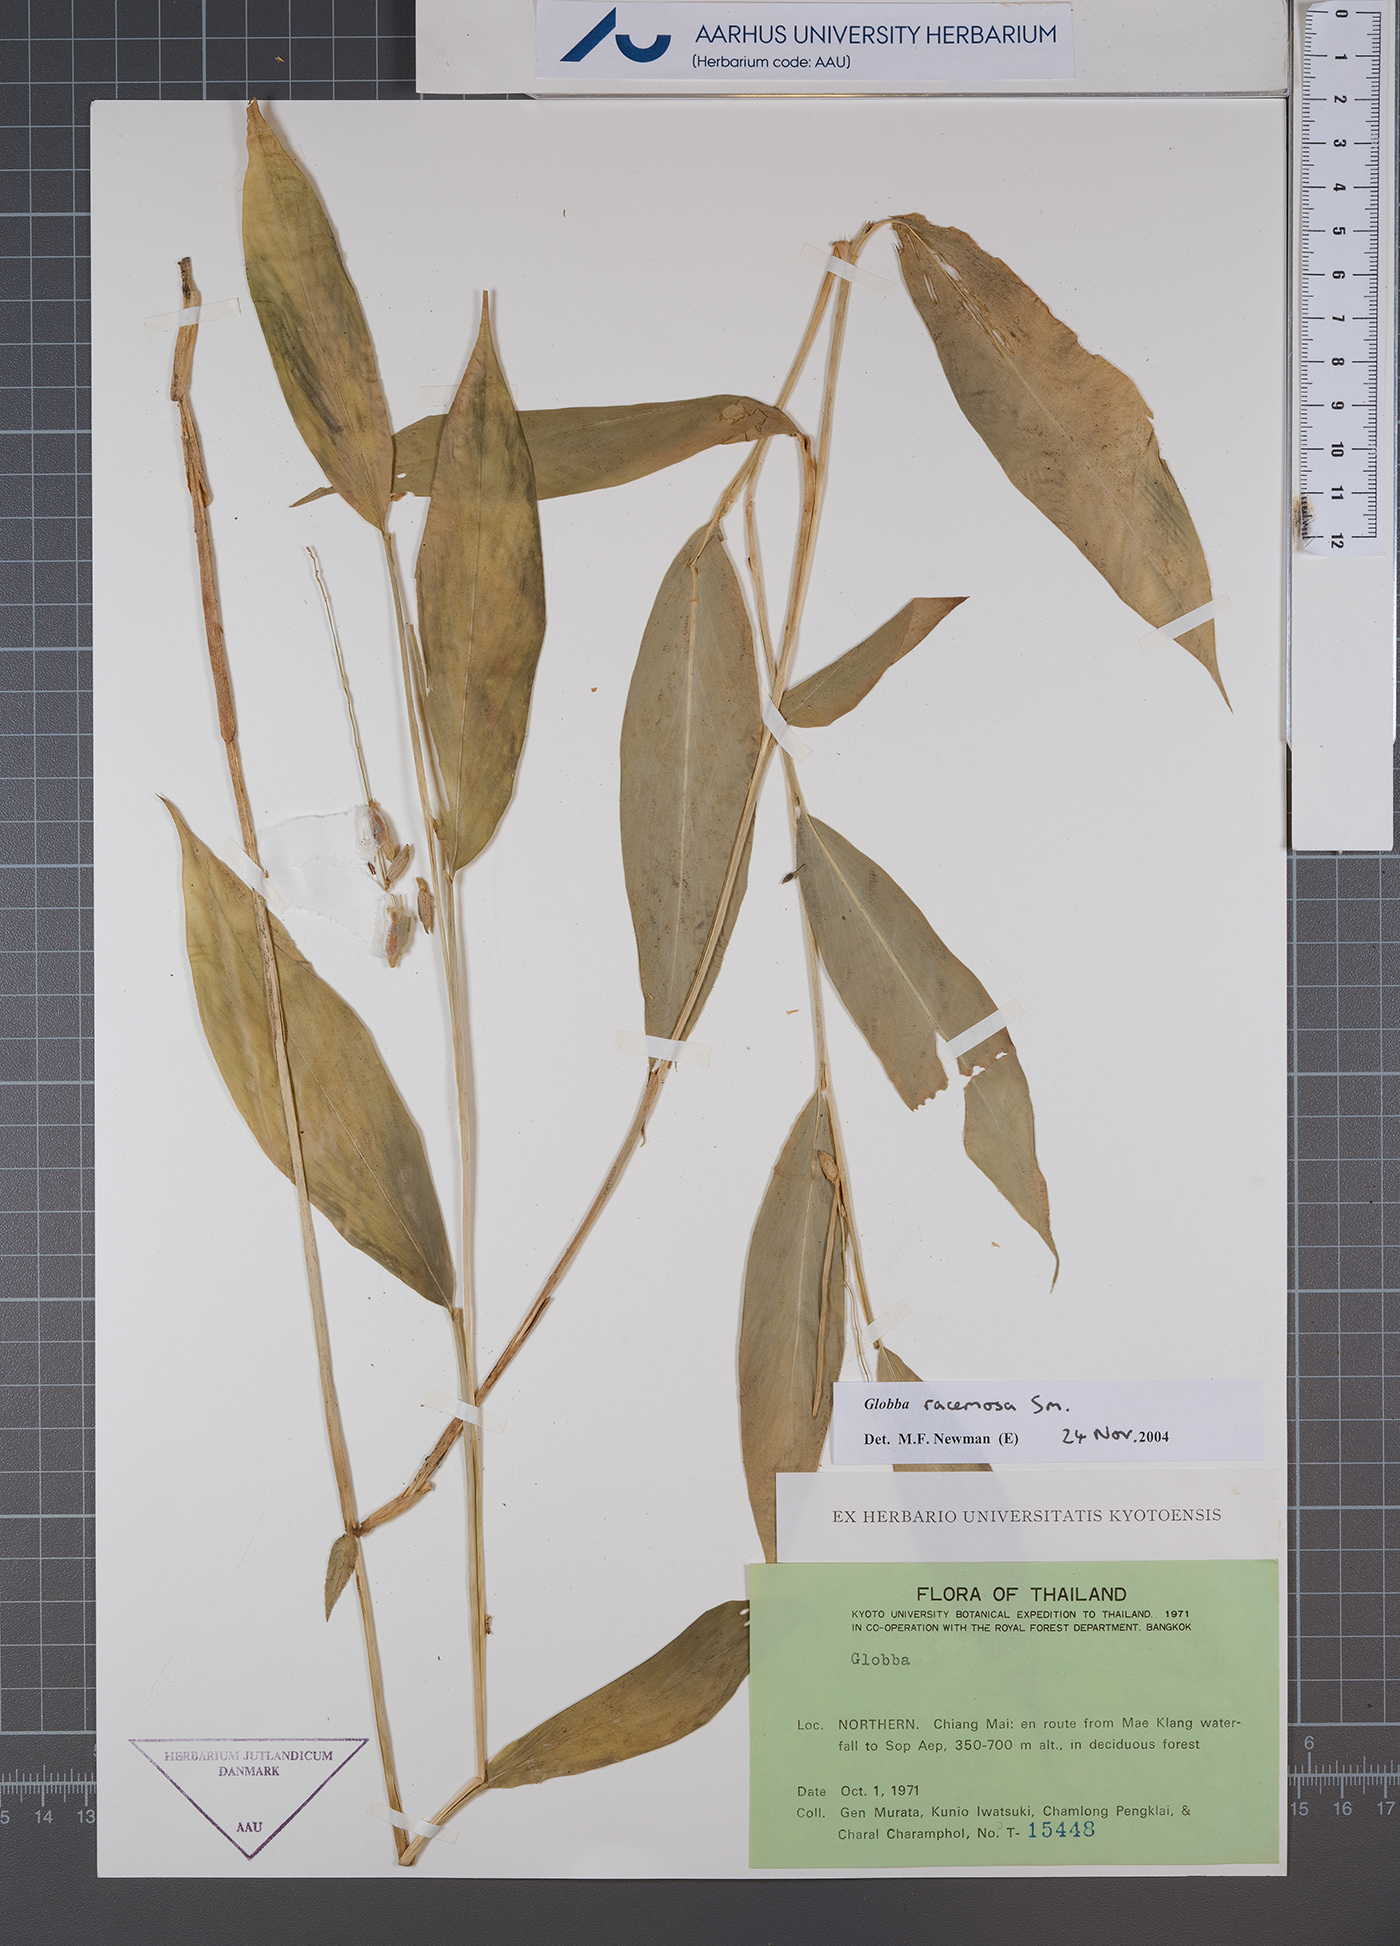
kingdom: Plantae
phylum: Tracheophyta
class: Liliopsida
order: Zingiberales
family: Zingiberaceae
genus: Globba
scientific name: Globba racemosa
